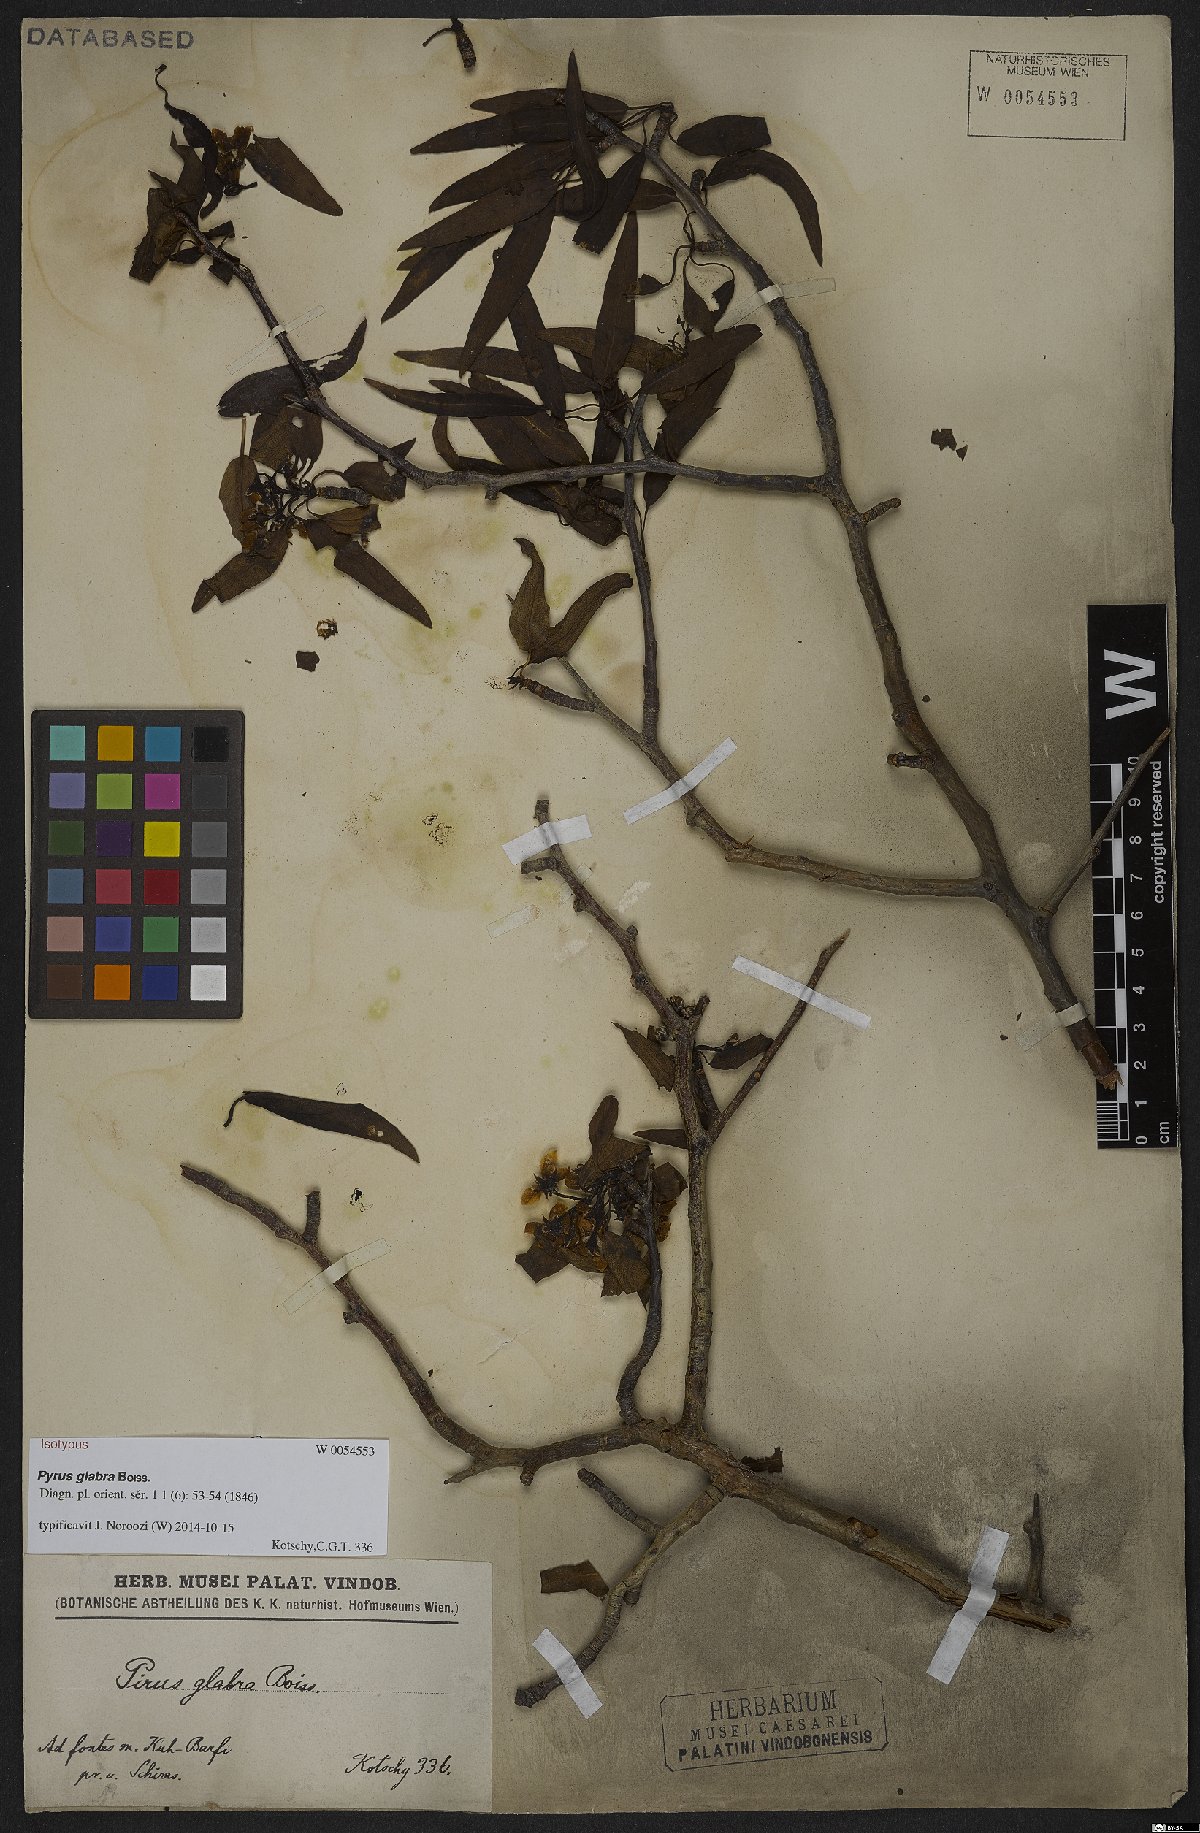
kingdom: Plantae
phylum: Tracheophyta
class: Magnoliopsida
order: Rosales
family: Rosaceae
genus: Pyrus
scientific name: Pyrus glabra
